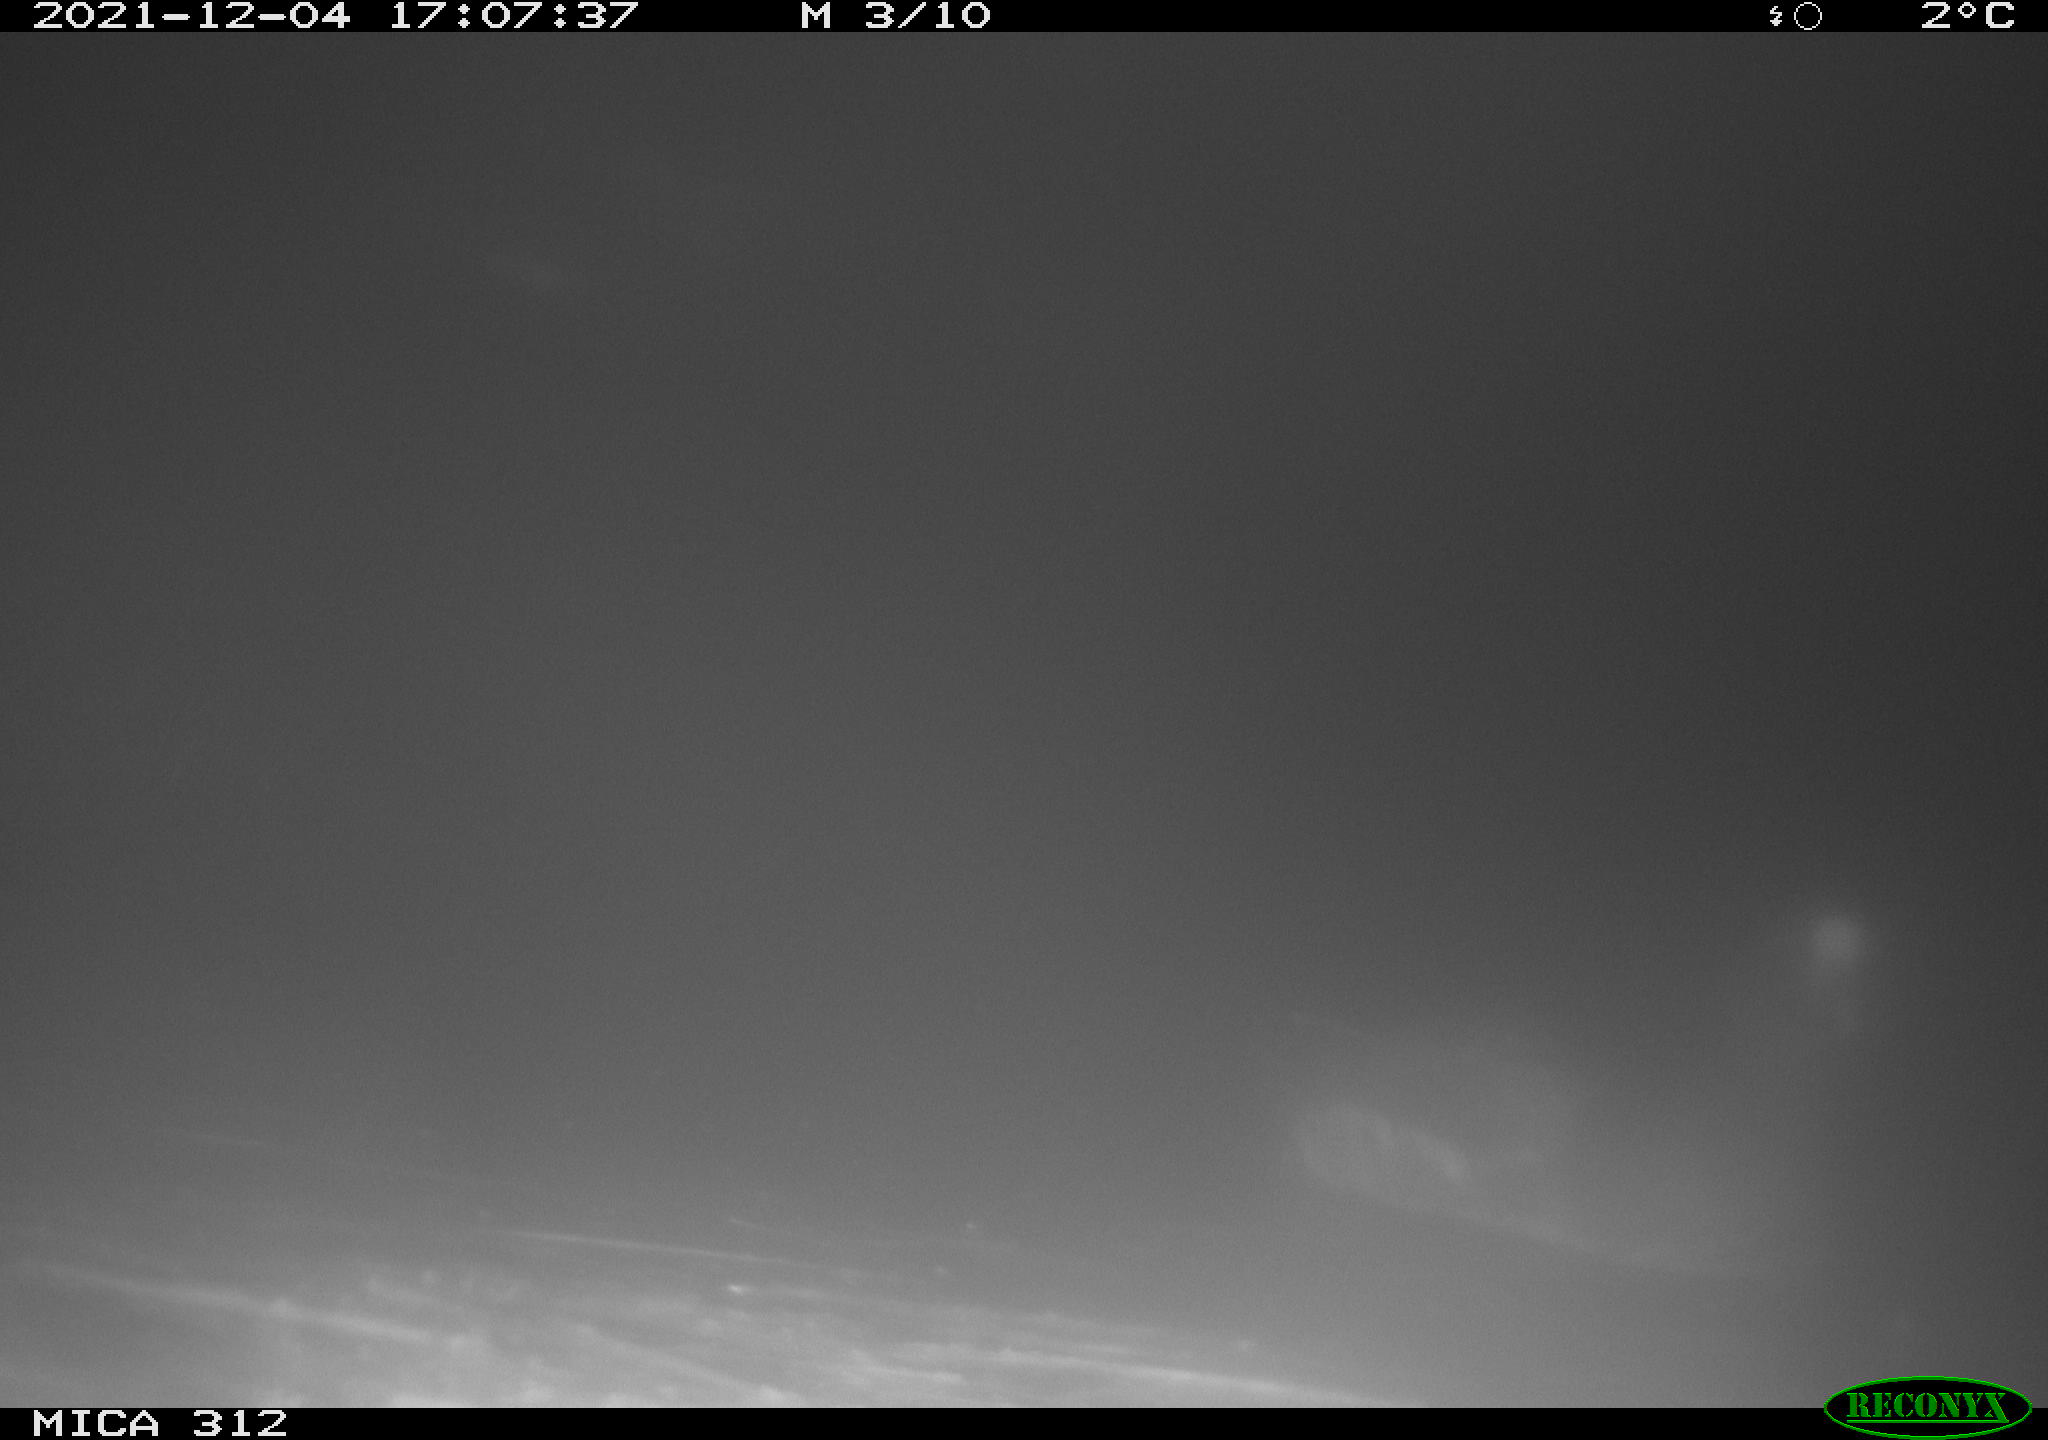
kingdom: Animalia
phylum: Chordata
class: Aves
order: Gruiformes
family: Rallidae
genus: Fulica
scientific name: Fulica atra
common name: Eurasian coot
